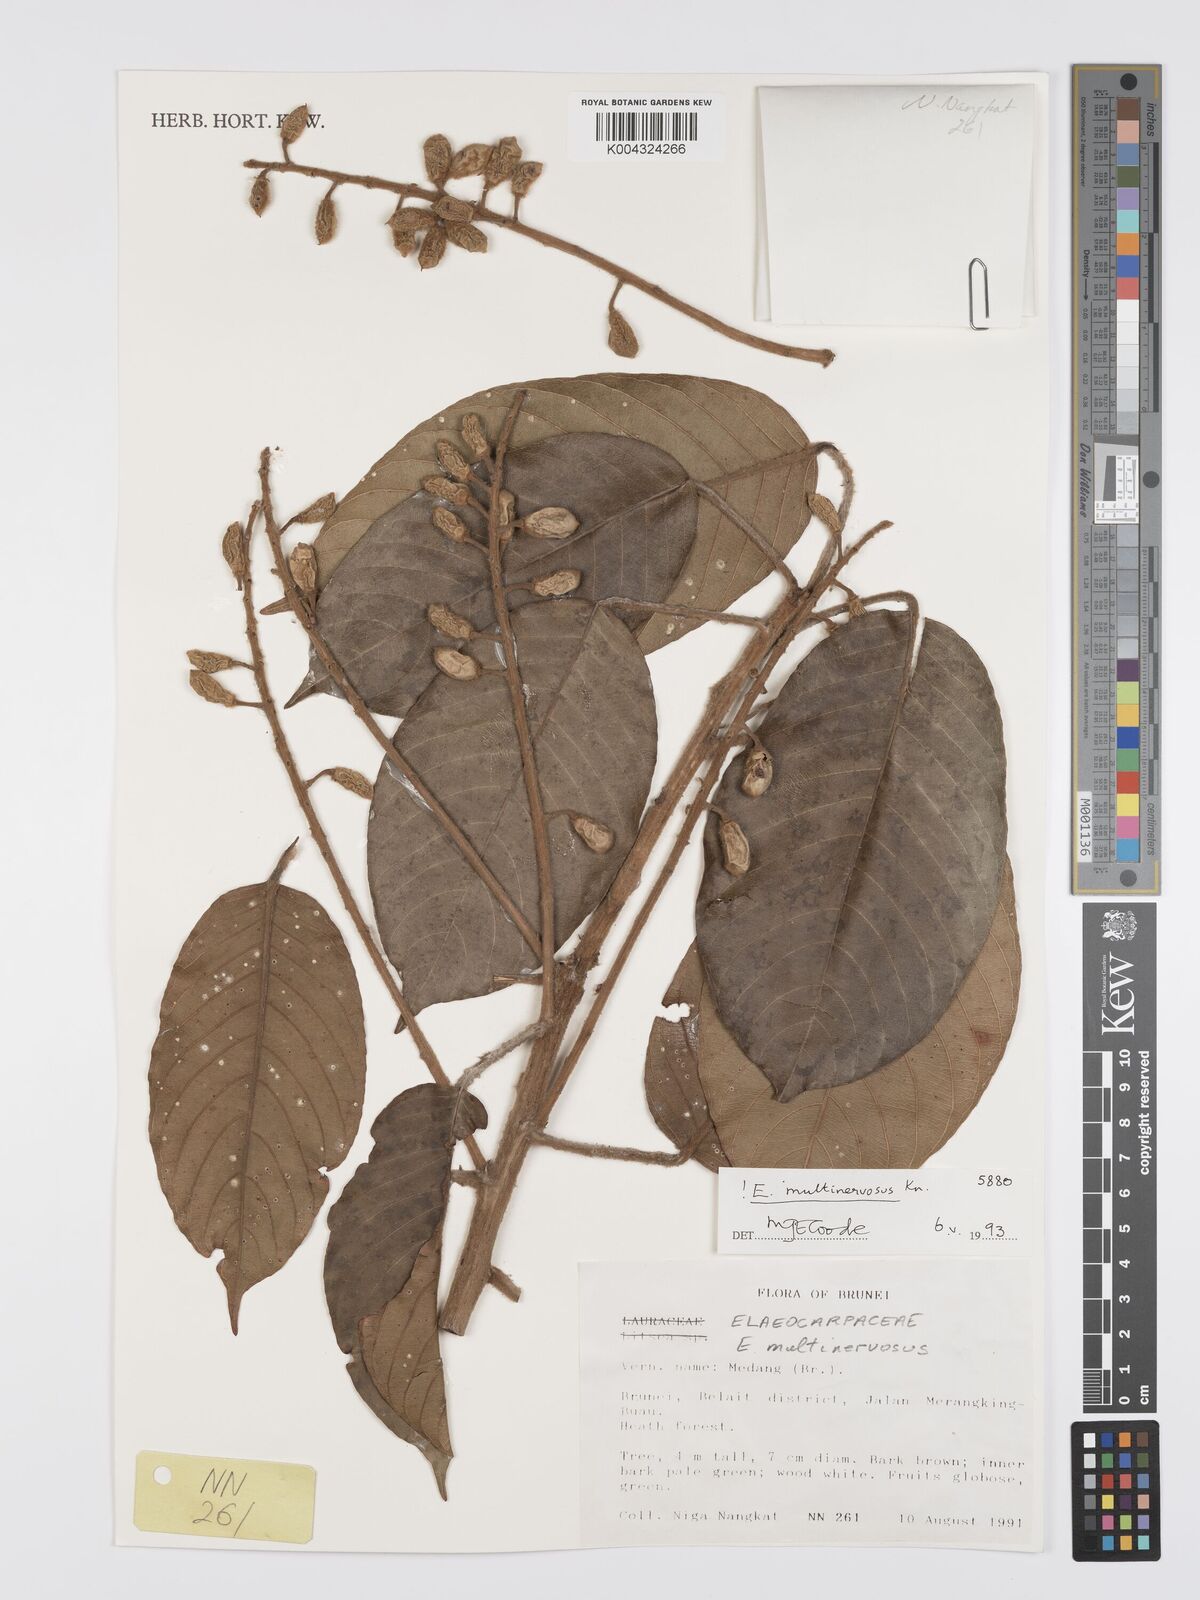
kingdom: Plantae
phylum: Tracheophyta
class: Magnoliopsida
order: Oxalidales
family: Elaeocarpaceae
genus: Elaeocarpus
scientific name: Elaeocarpus multinervosus
